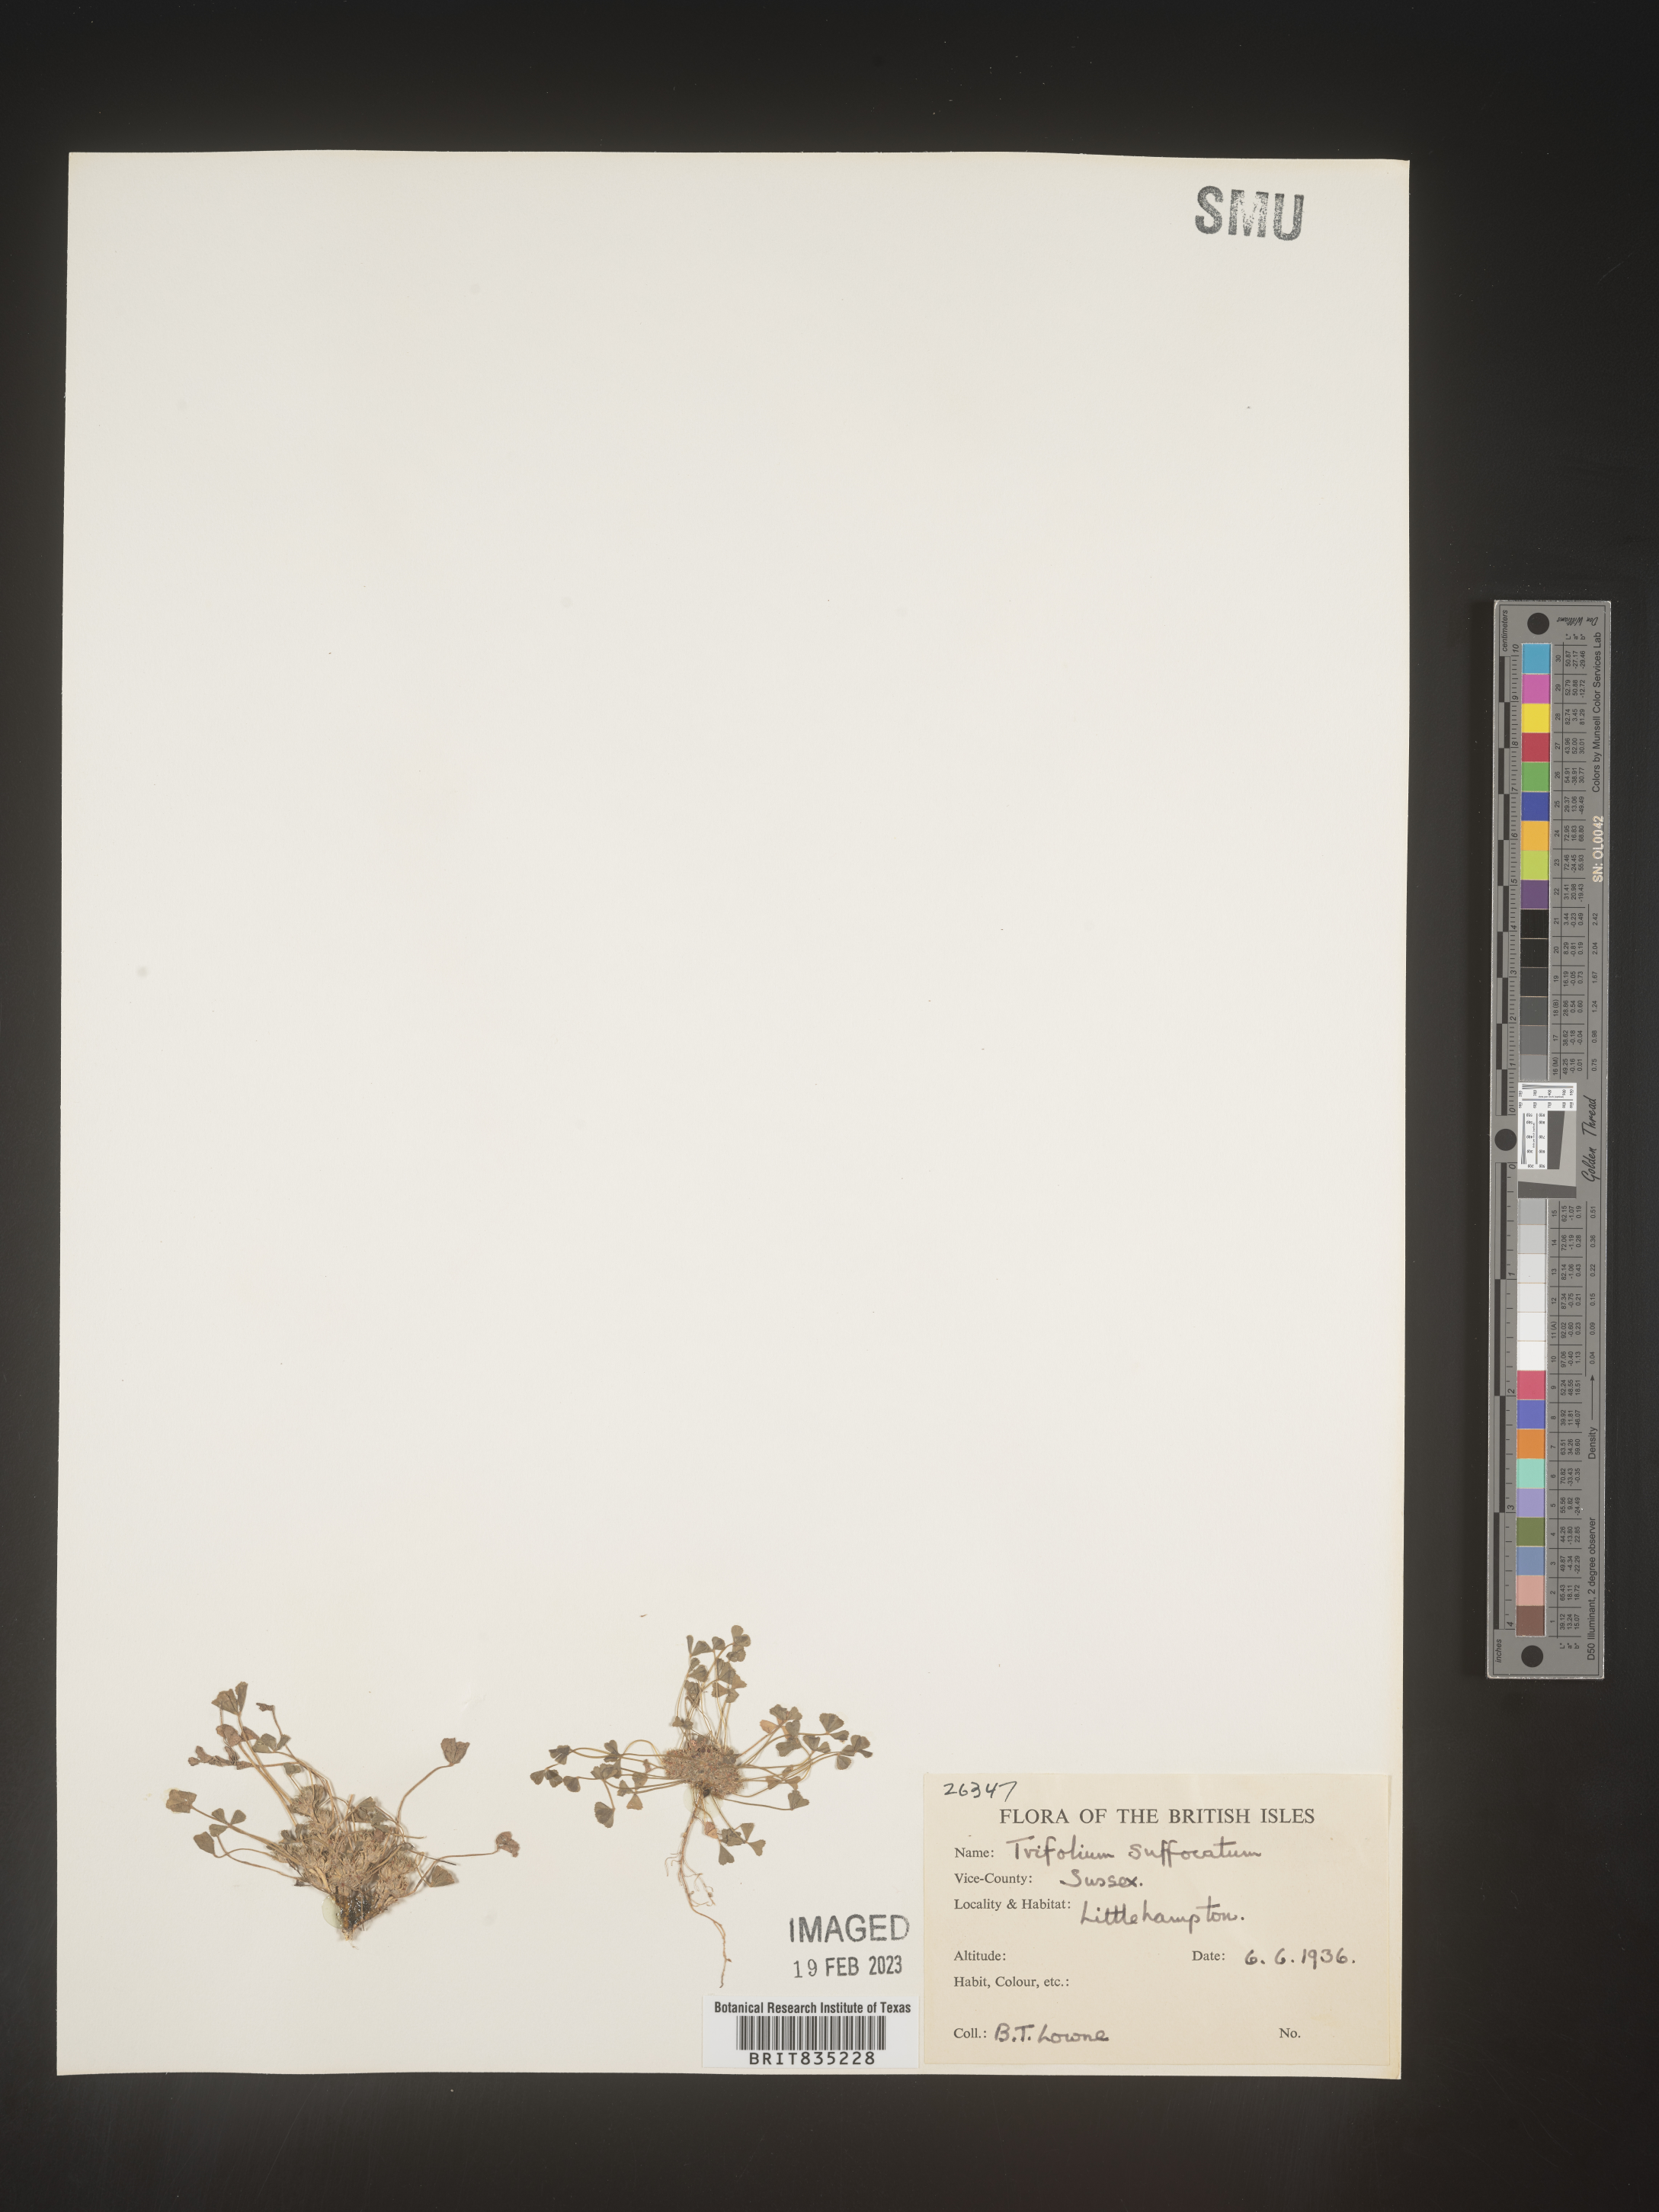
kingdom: Plantae
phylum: Tracheophyta
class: Magnoliopsida
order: Fabales
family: Fabaceae
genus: Trifolium
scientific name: Trifolium
